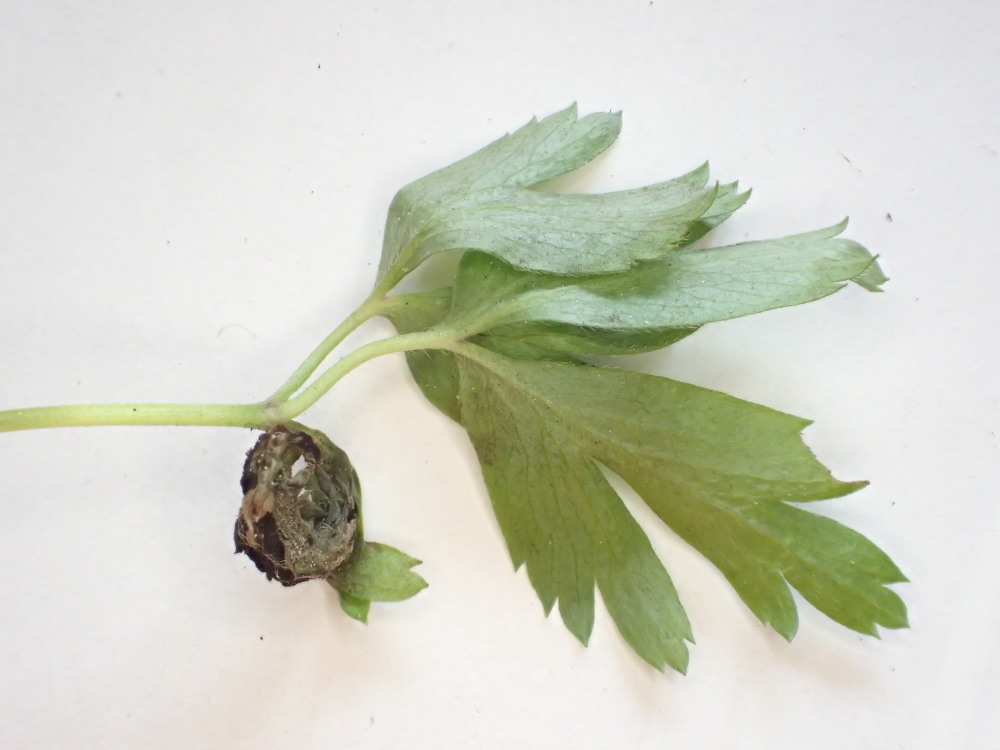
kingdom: Fungi
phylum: Basidiomycota
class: Ustilaginomycetes
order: Urocystidales
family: Urocystidaceae
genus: Urocystis
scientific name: Urocystis anemones
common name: anemone-brand
